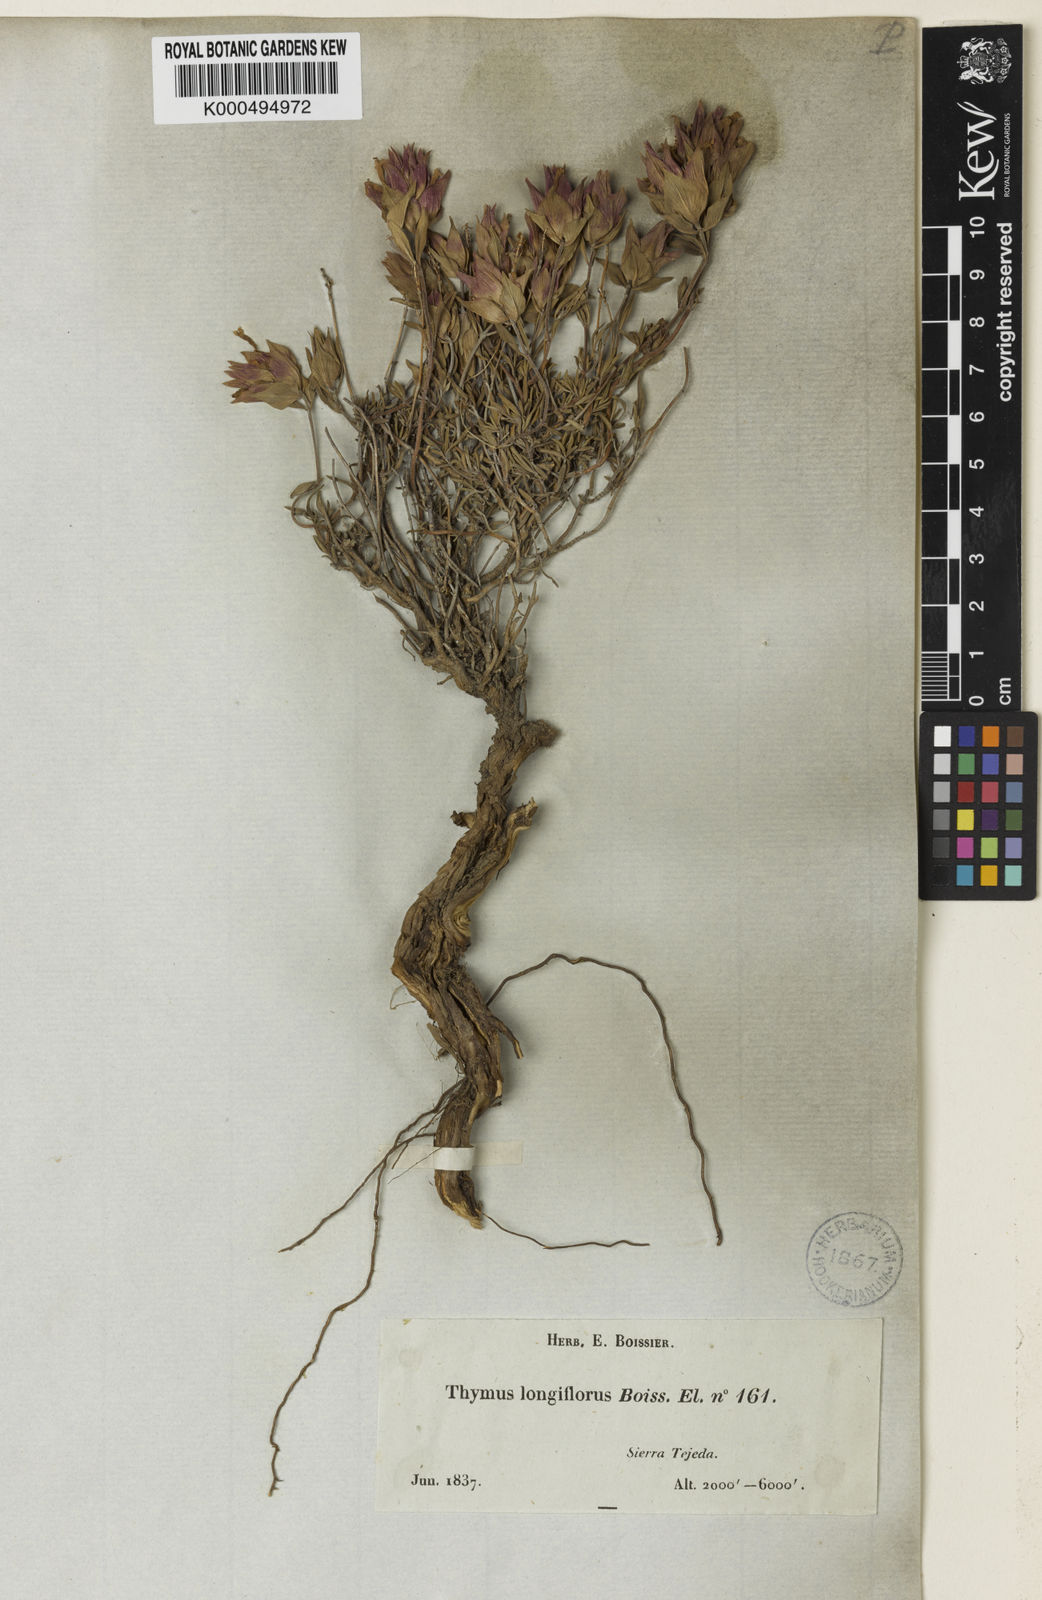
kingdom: Plantae
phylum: Tracheophyta
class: Magnoliopsida
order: Lamiales
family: Lamiaceae
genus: Thymus
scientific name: Thymus longiflorus
